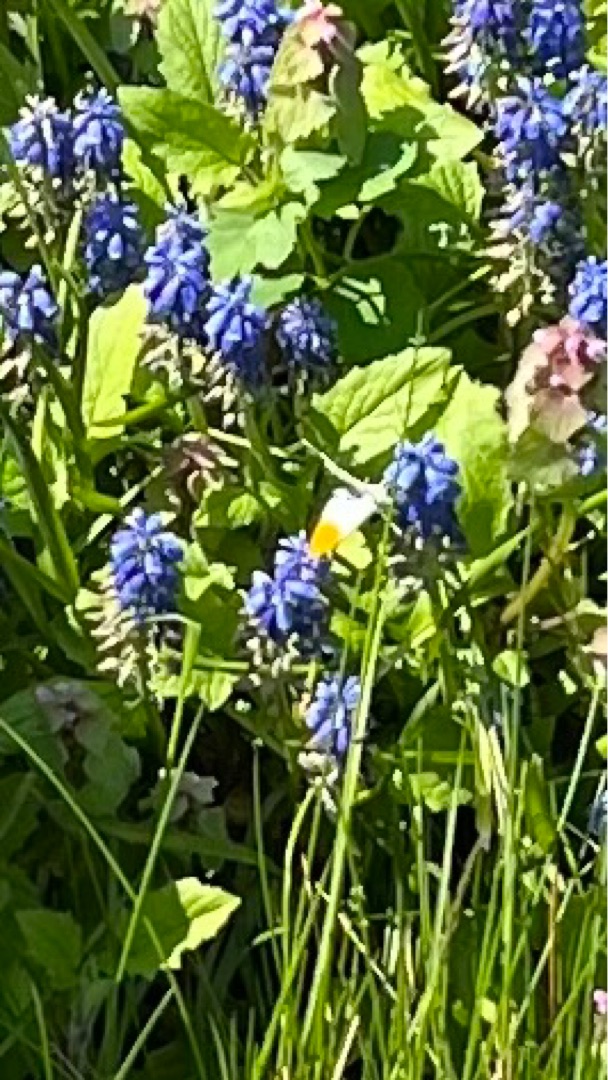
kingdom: Animalia
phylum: Arthropoda
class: Insecta
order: Lepidoptera
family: Pieridae
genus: Anthocharis
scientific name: Anthocharis cardamines
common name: Aurora
